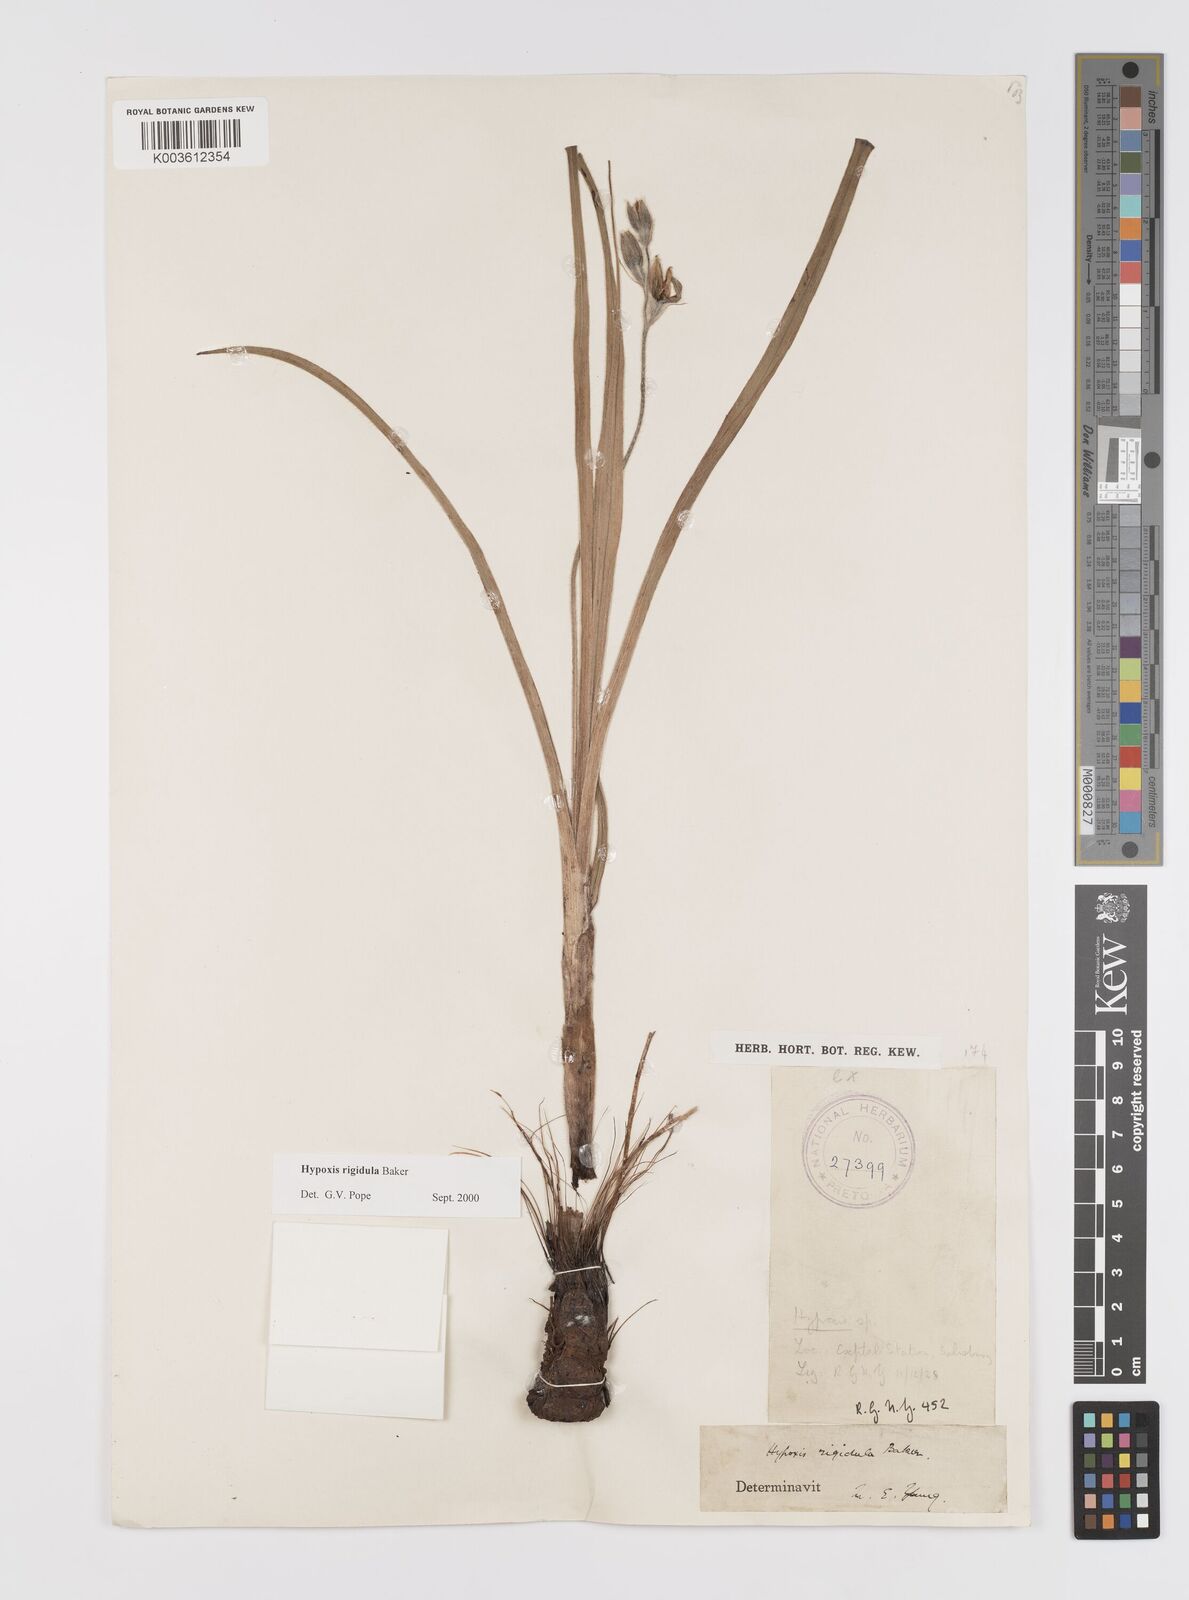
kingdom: Plantae
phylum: Tracheophyta
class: Liliopsida
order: Asparagales
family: Hypoxidaceae
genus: Hypoxis
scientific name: Hypoxis rigidula
